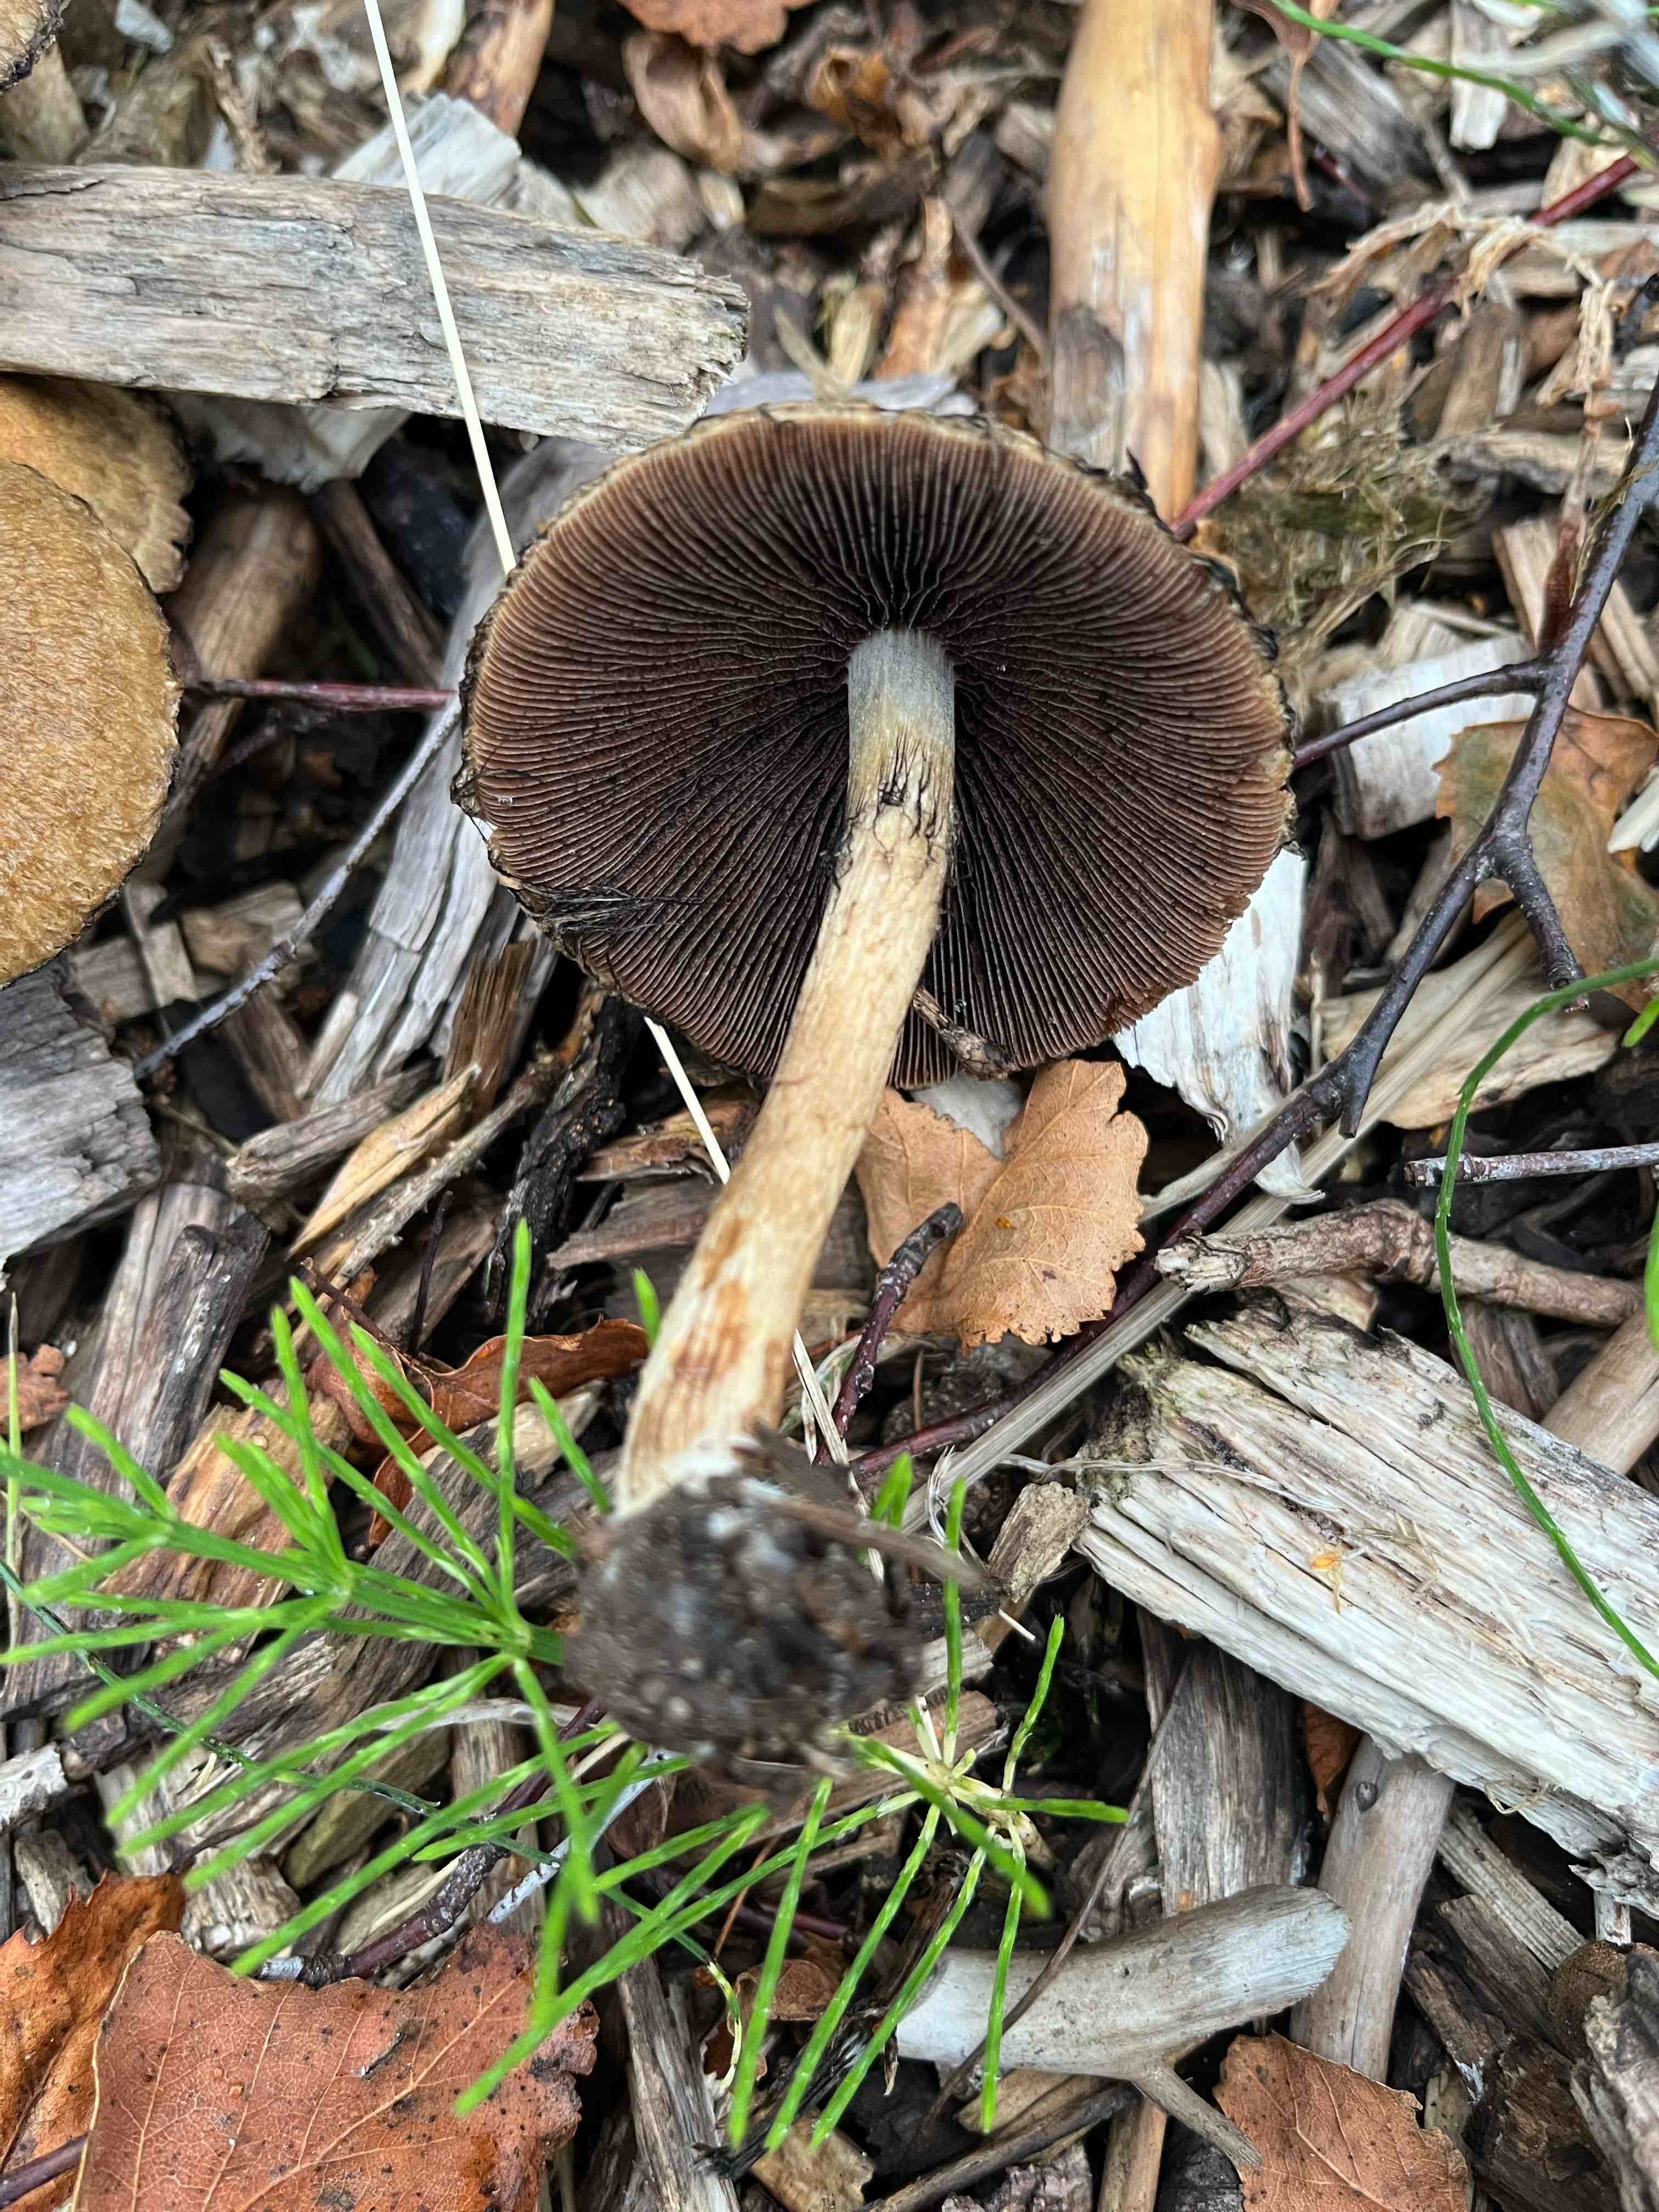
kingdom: Fungi
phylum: Basidiomycota
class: Agaricomycetes
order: Agaricales
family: Psathyrellaceae
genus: Lacrymaria
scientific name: Lacrymaria lacrymabunda
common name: grædende mørkhat
